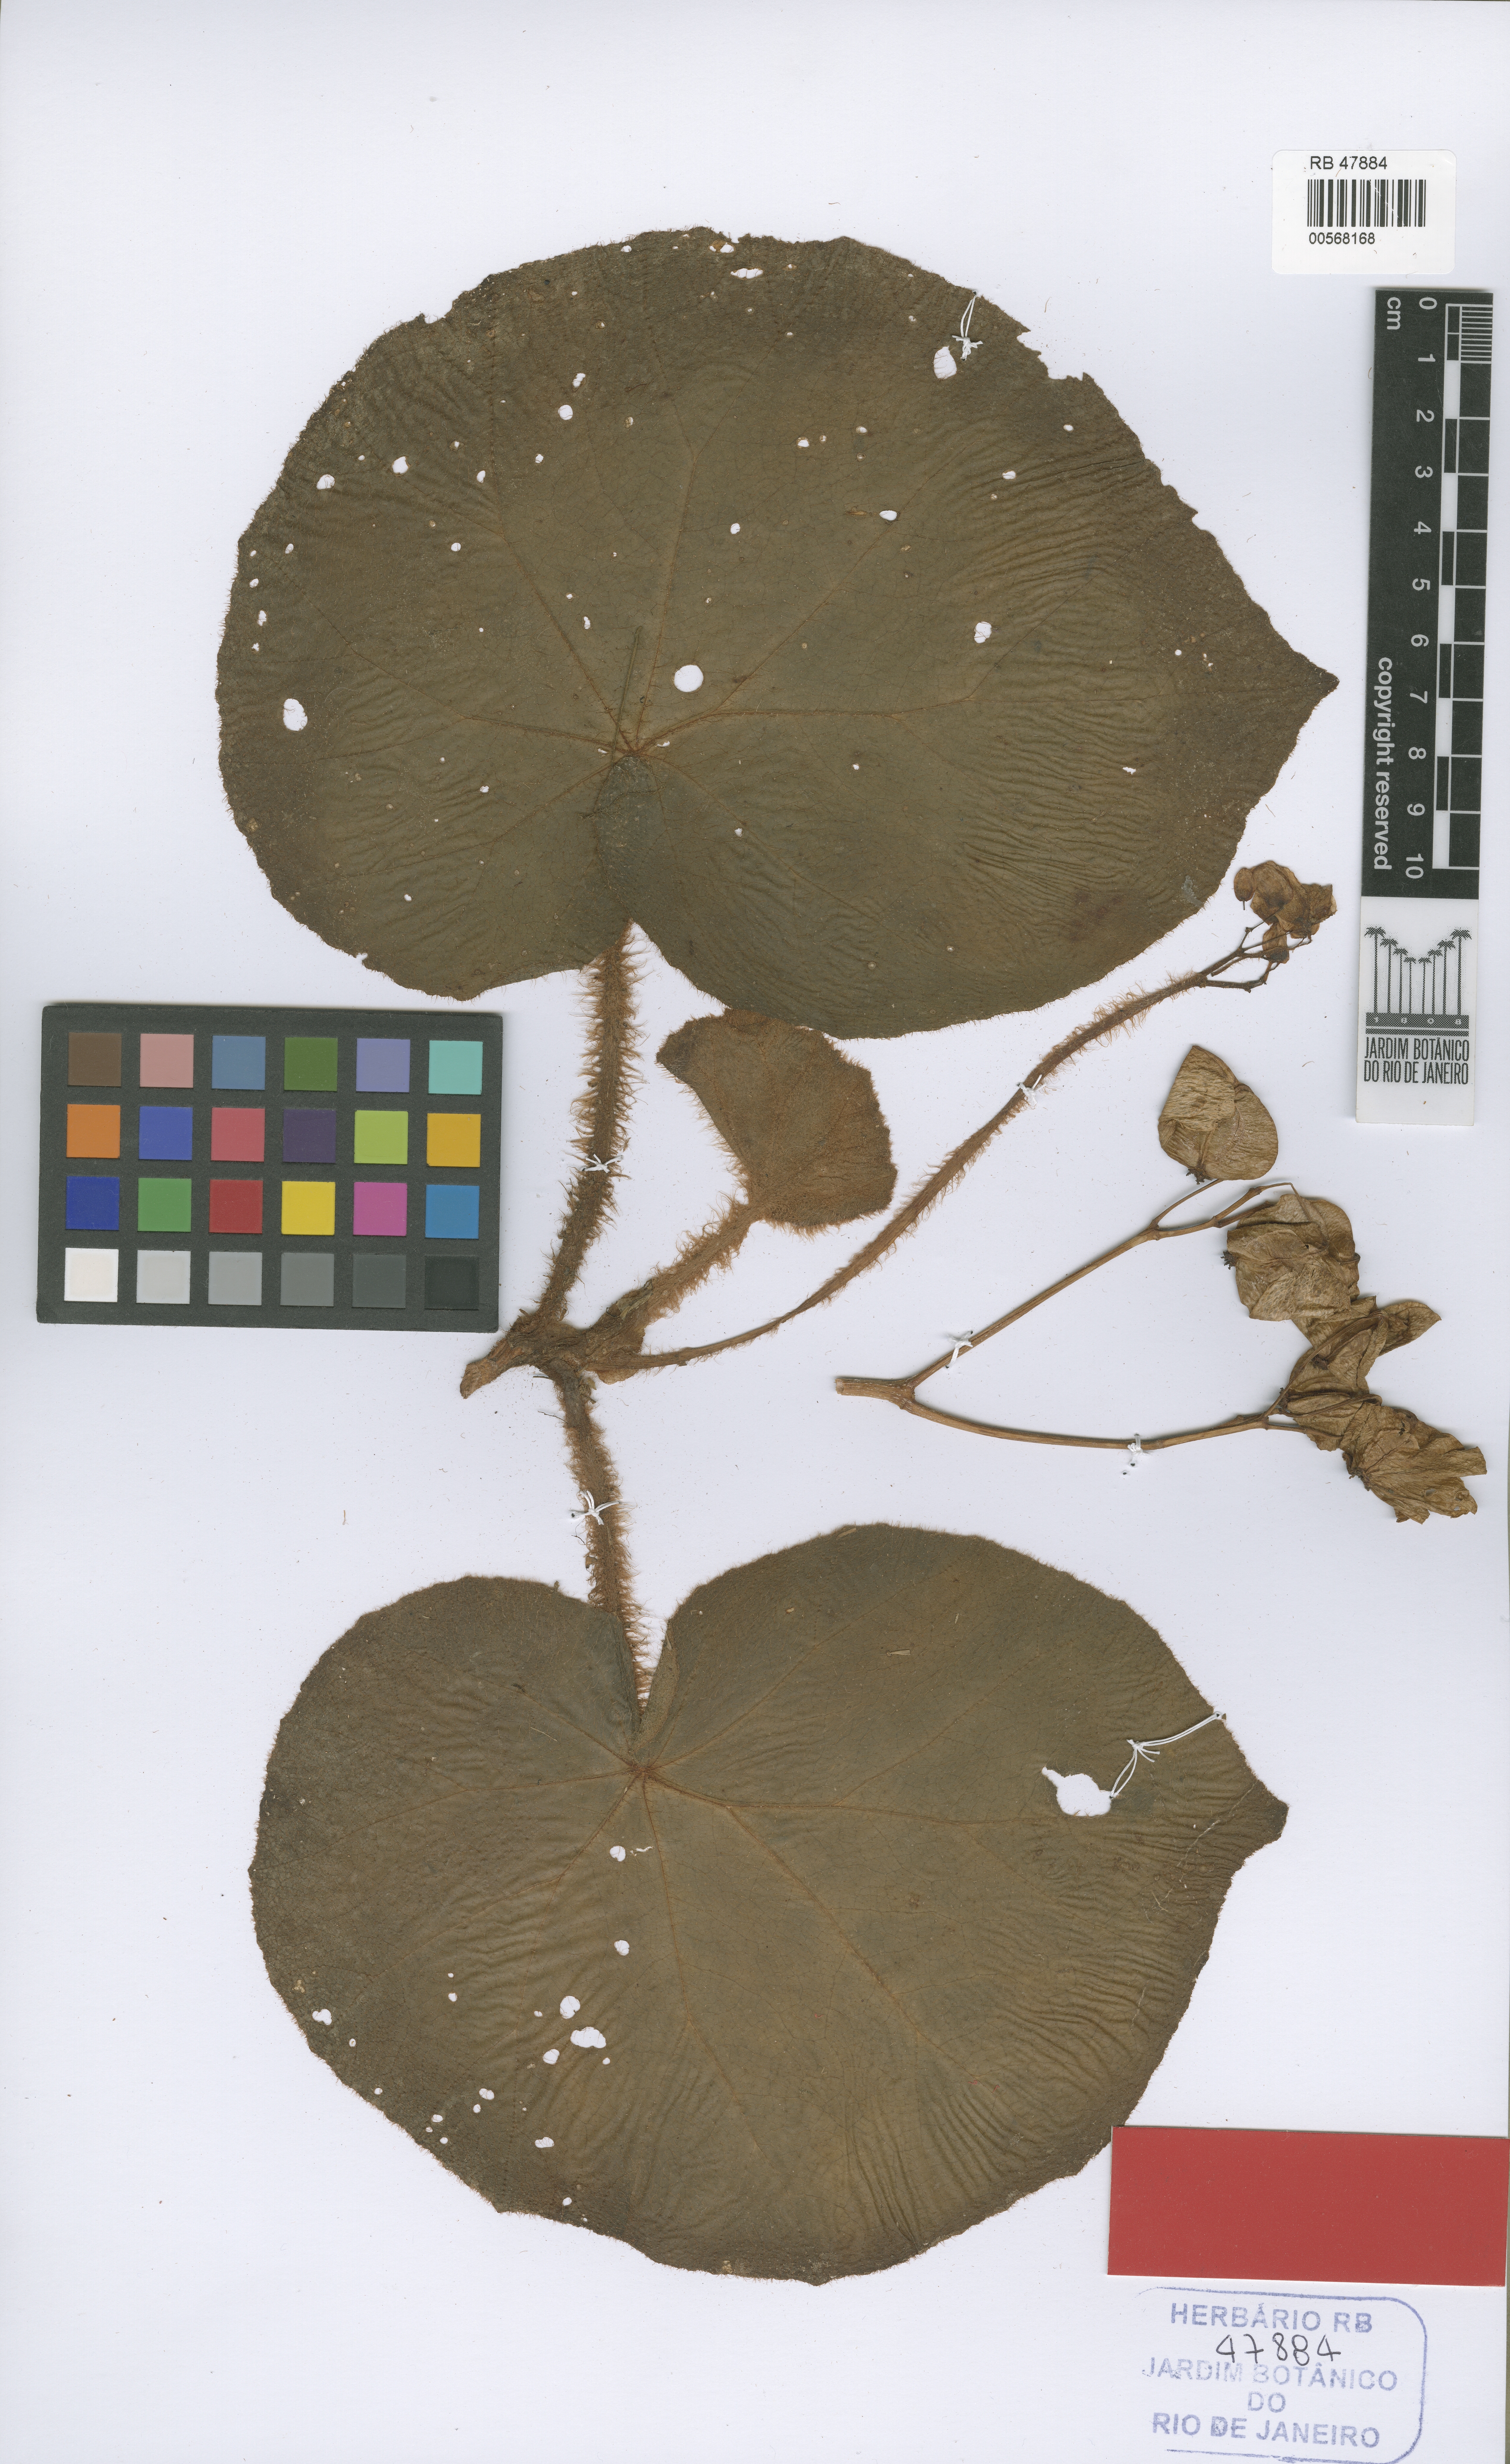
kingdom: Plantae
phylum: Tracheophyta
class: Magnoliopsida
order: Cucurbitales
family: Begoniaceae
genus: Begonia
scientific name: Begonia olsoniae
